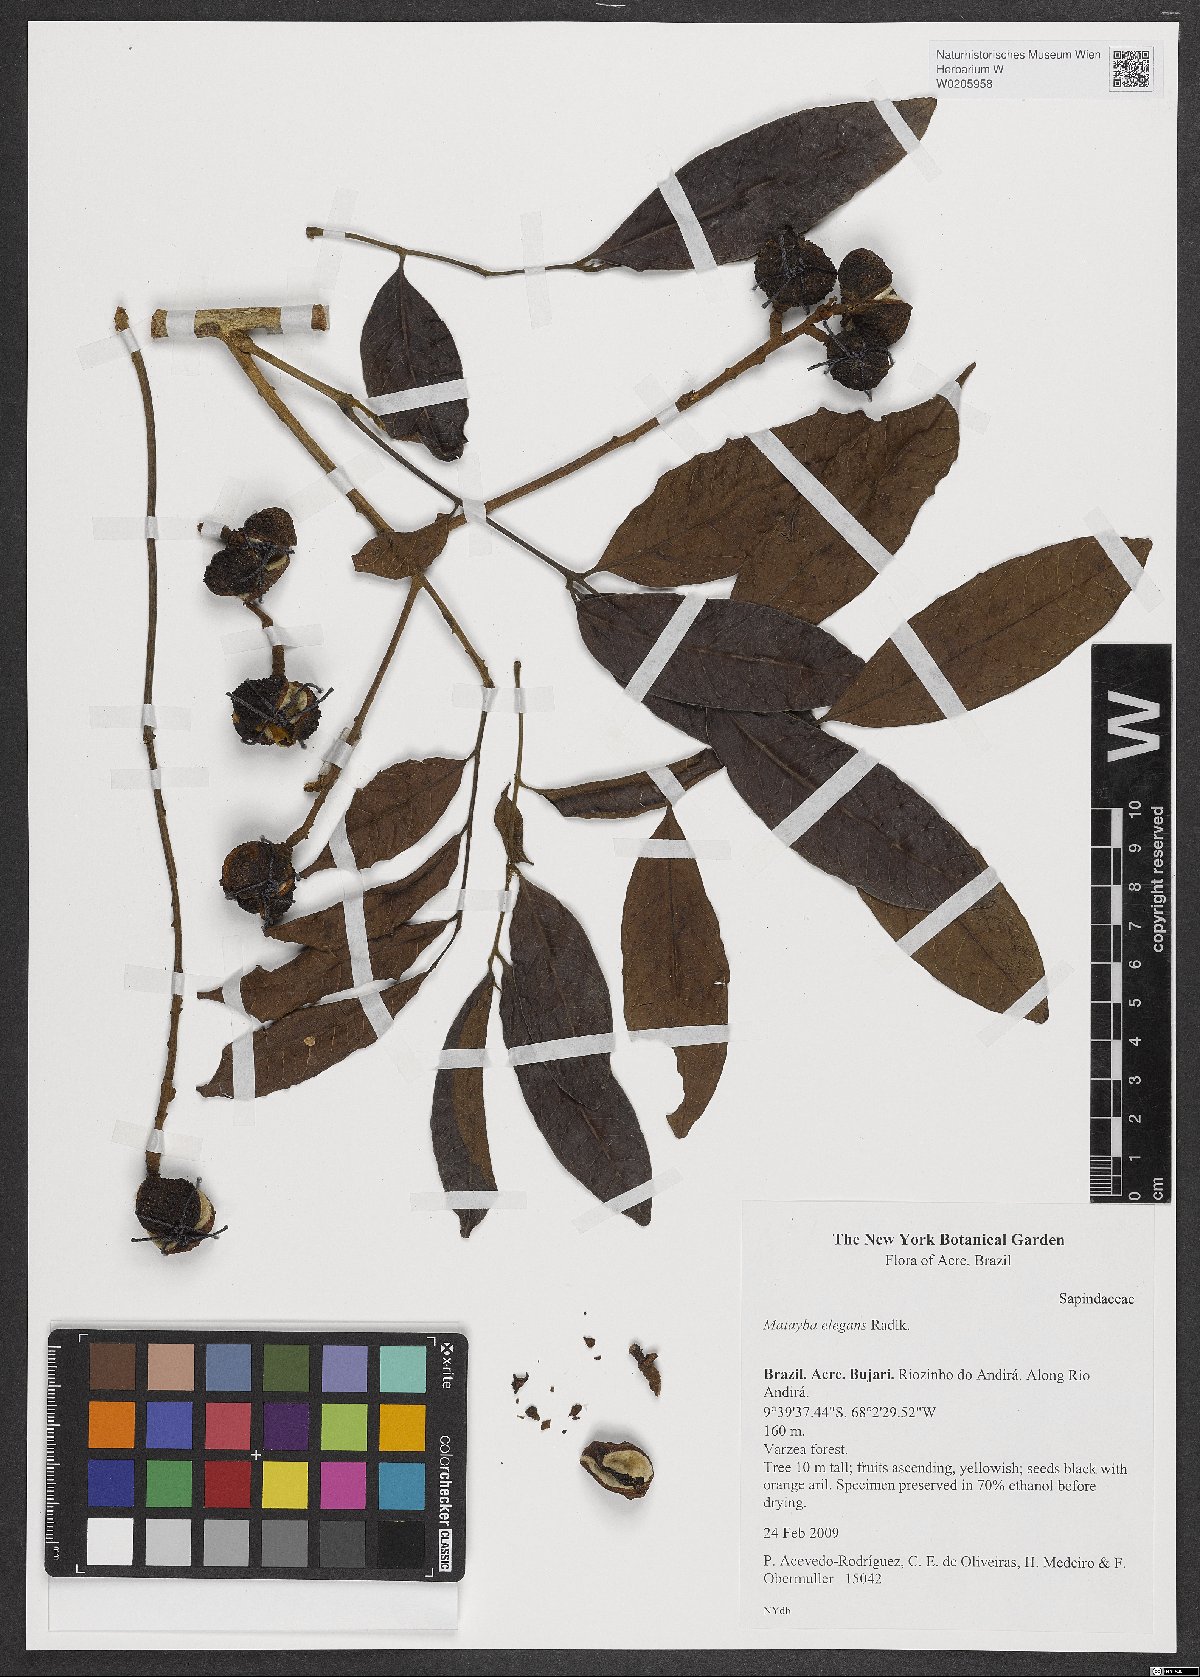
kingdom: Plantae
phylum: Tracheophyta
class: Magnoliopsida
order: Sapindales
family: Sapindaceae
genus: Matayba
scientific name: Matayba elegans
